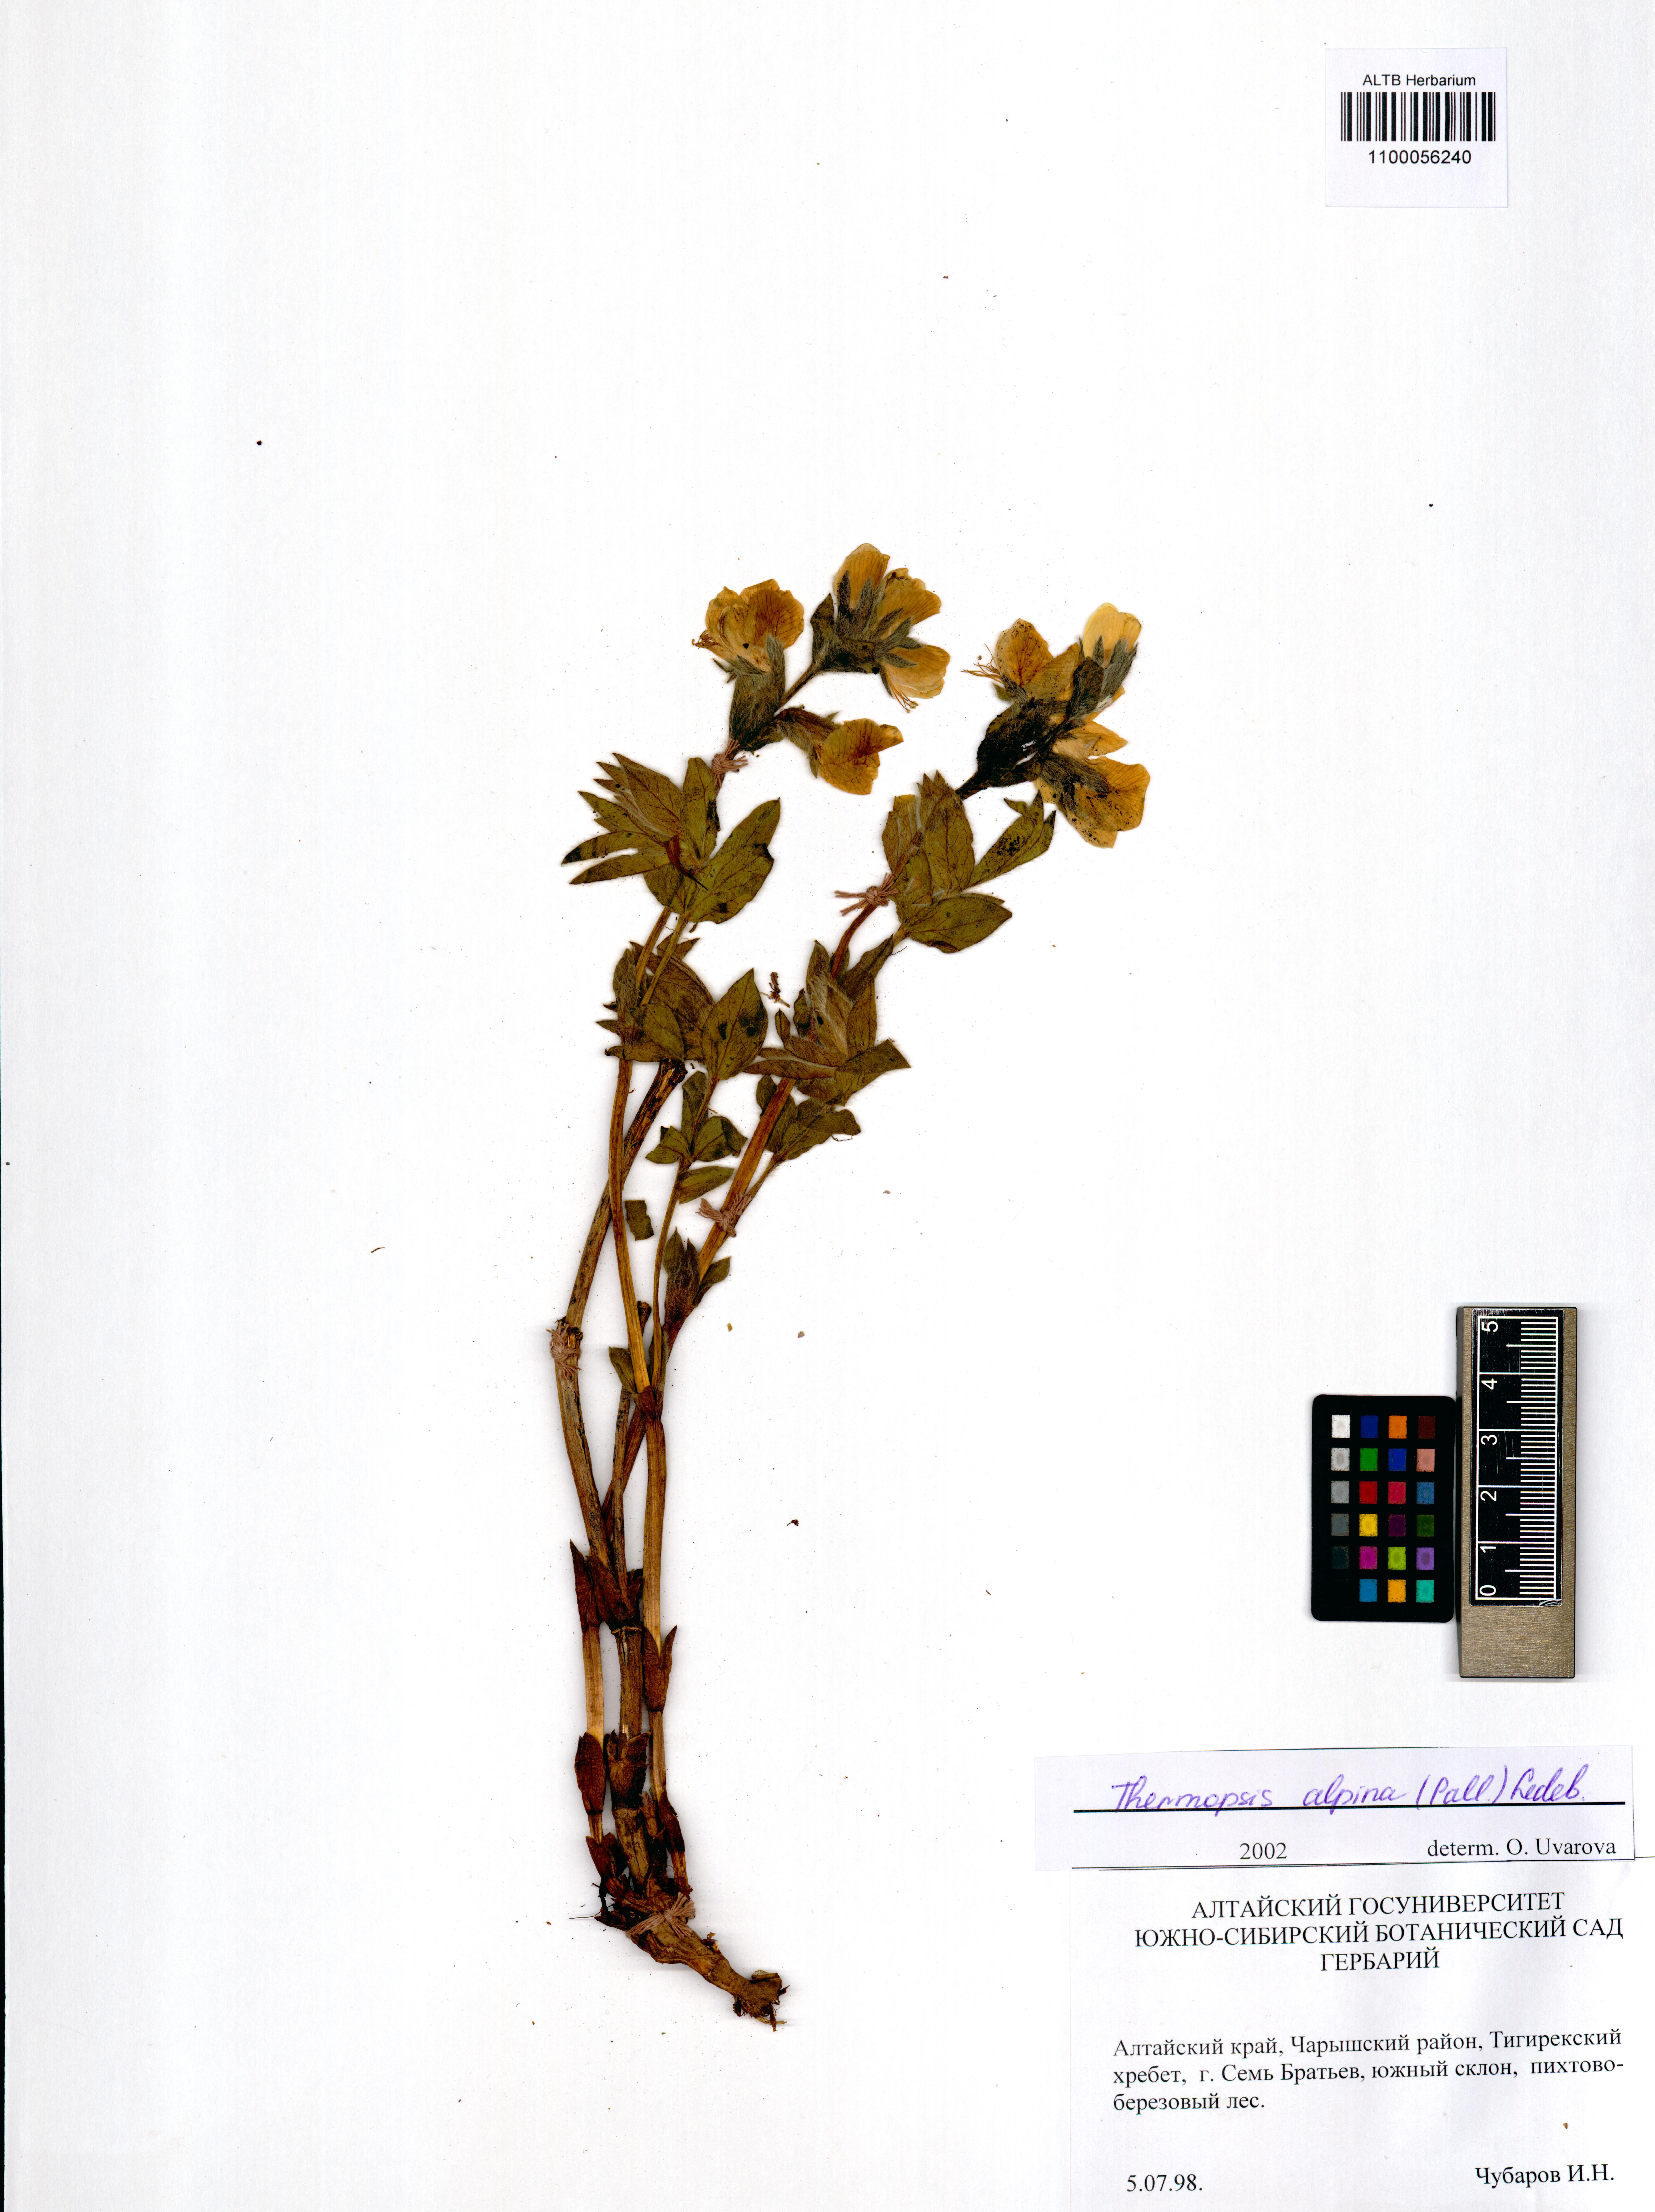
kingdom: Plantae
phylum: Tracheophyta
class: Magnoliopsida
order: Fabales
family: Fabaceae
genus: Thermopsis
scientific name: Thermopsis alpina
